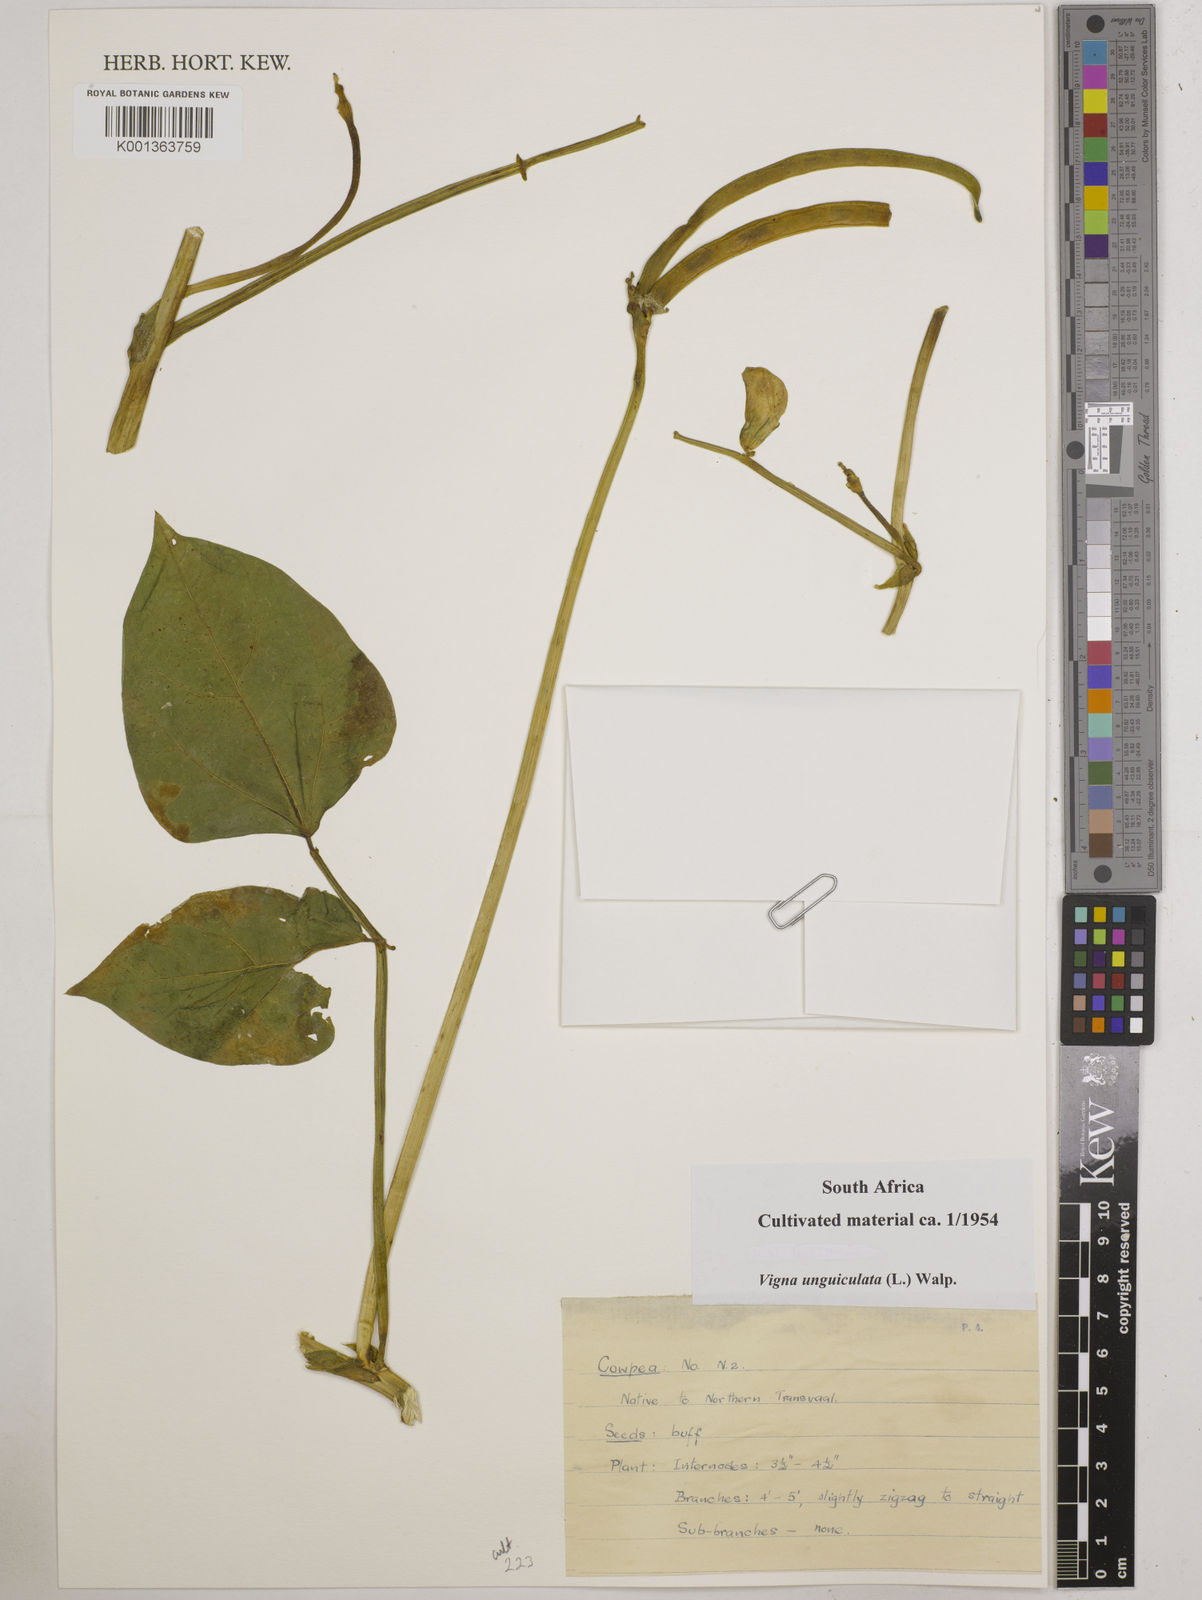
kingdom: Plantae
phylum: Tracheophyta
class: Magnoliopsida
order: Fabales
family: Fabaceae
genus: Vigna
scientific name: Vigna unguiculata
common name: Cowpea
